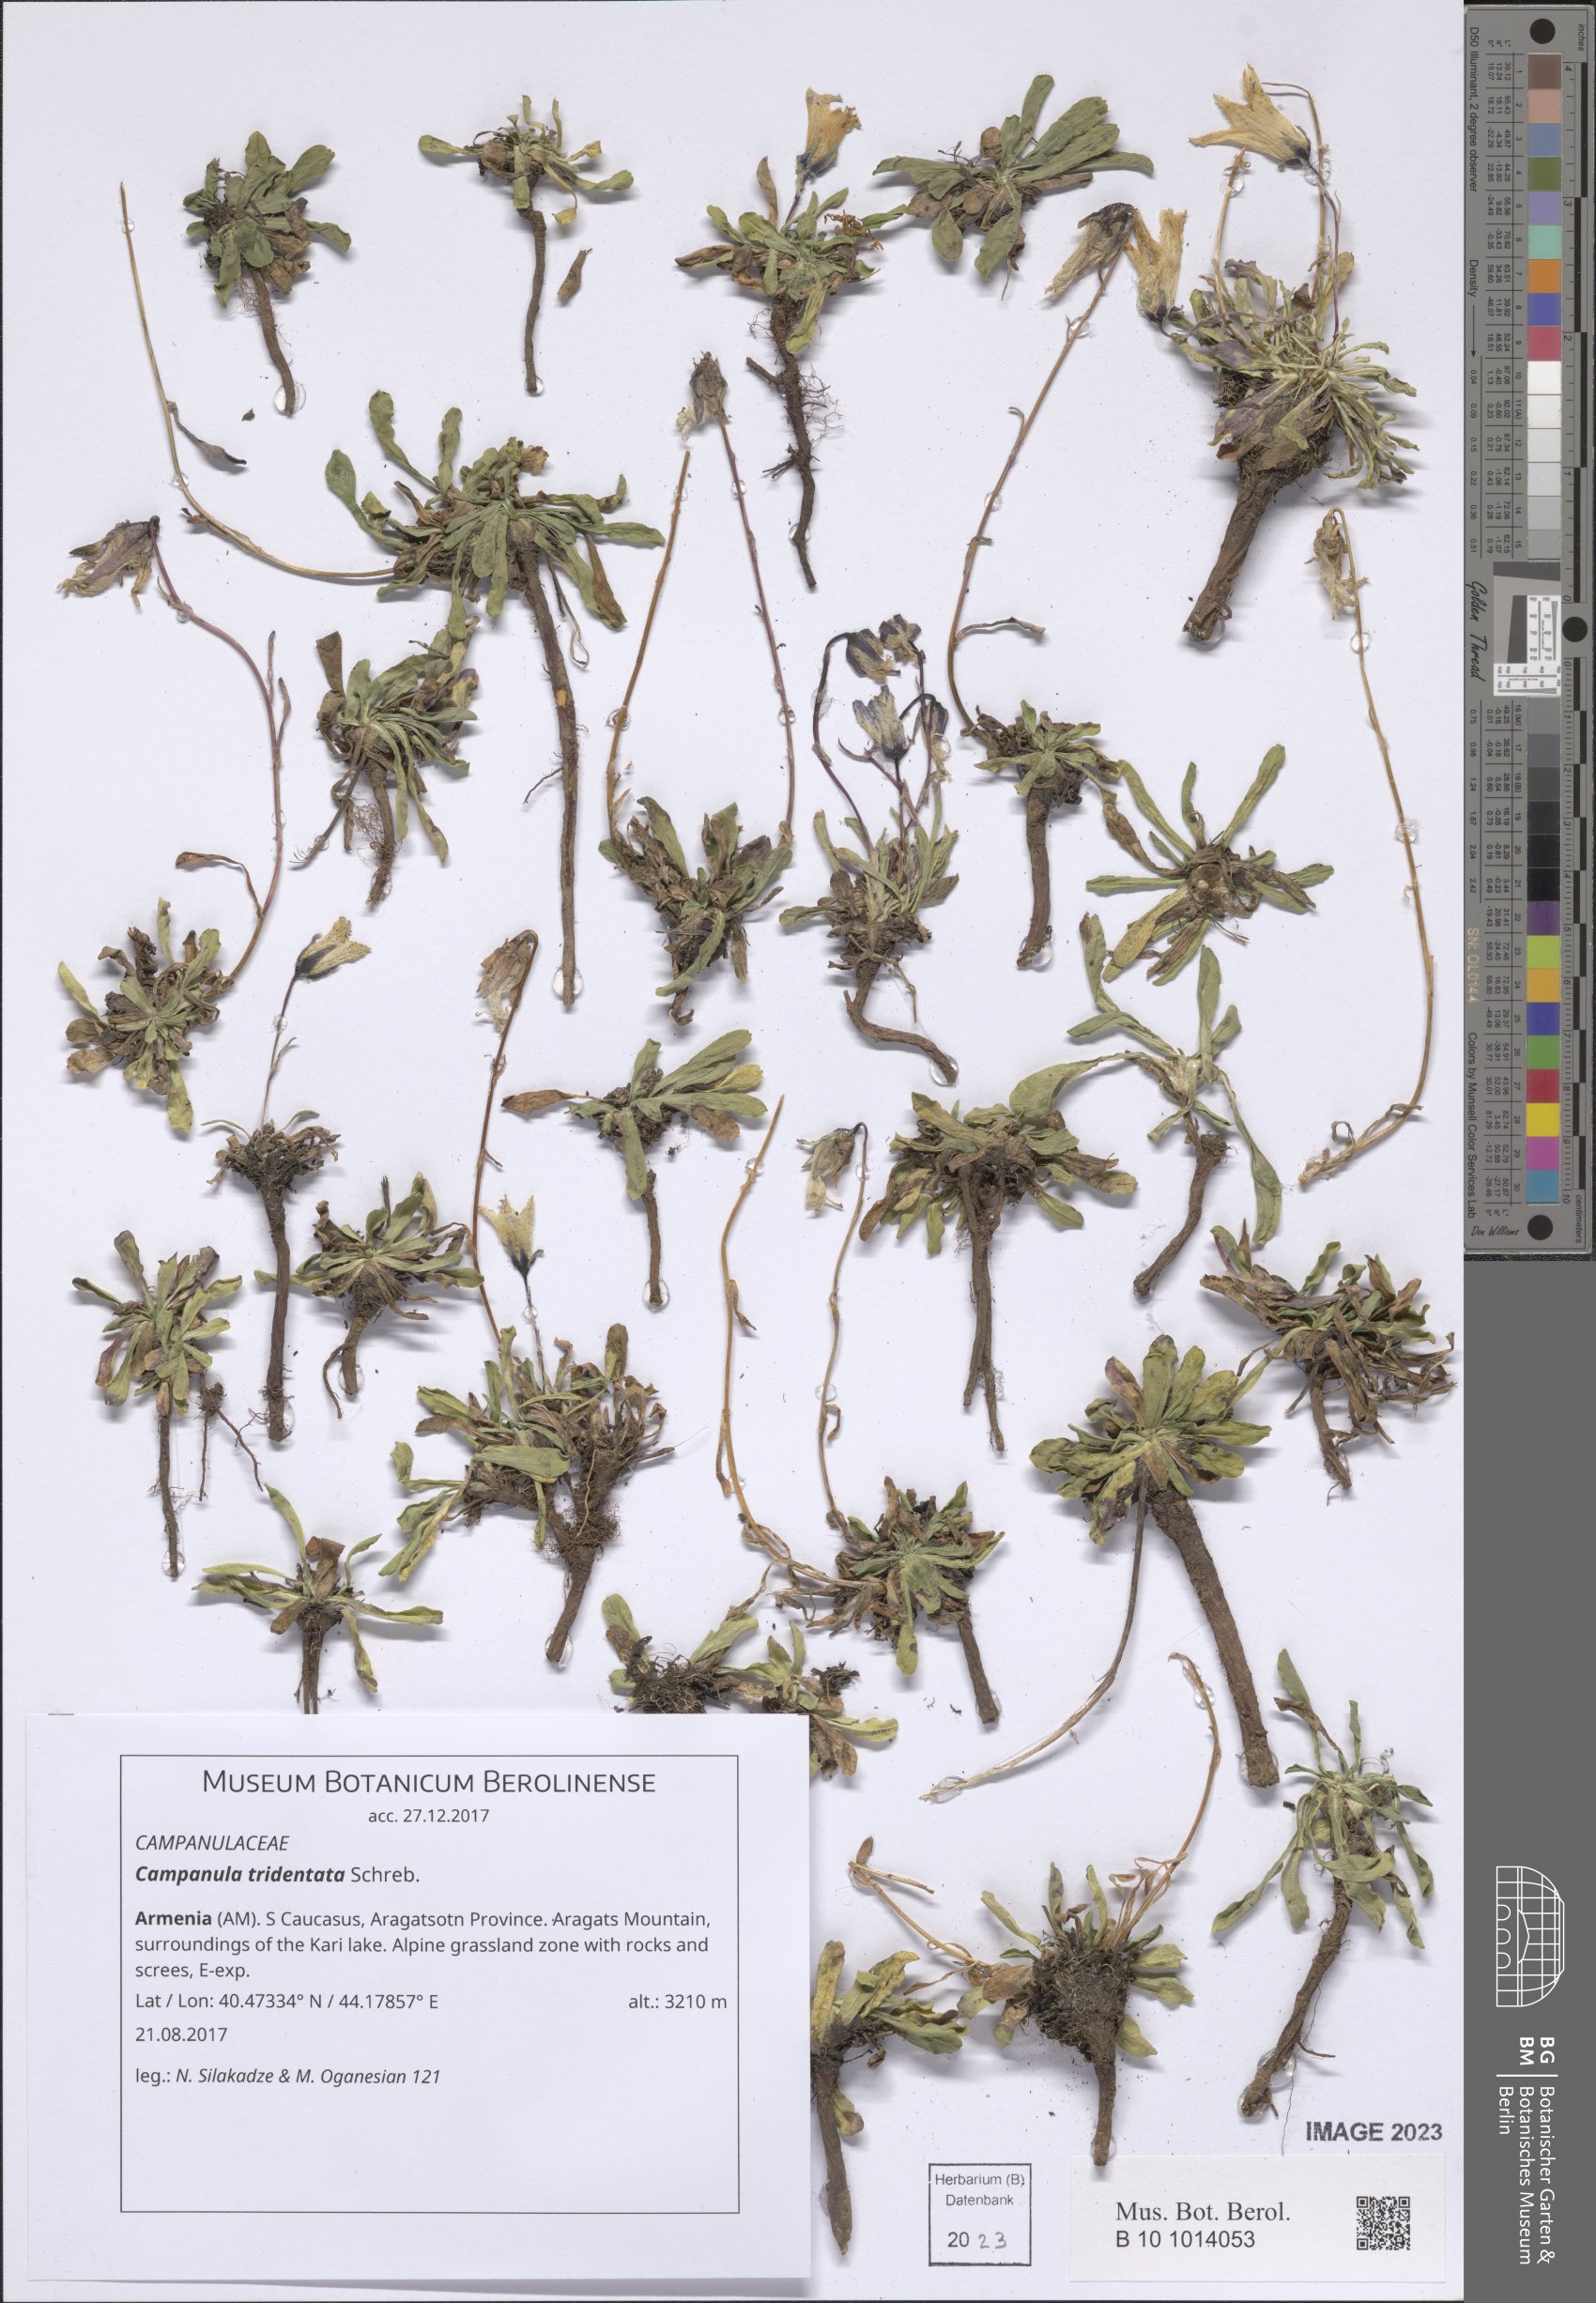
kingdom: Plantae
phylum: Tracheophyta
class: Magnoliopsida
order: Asterales
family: Campanulaceae
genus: Campanula
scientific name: Campanula tridentata
